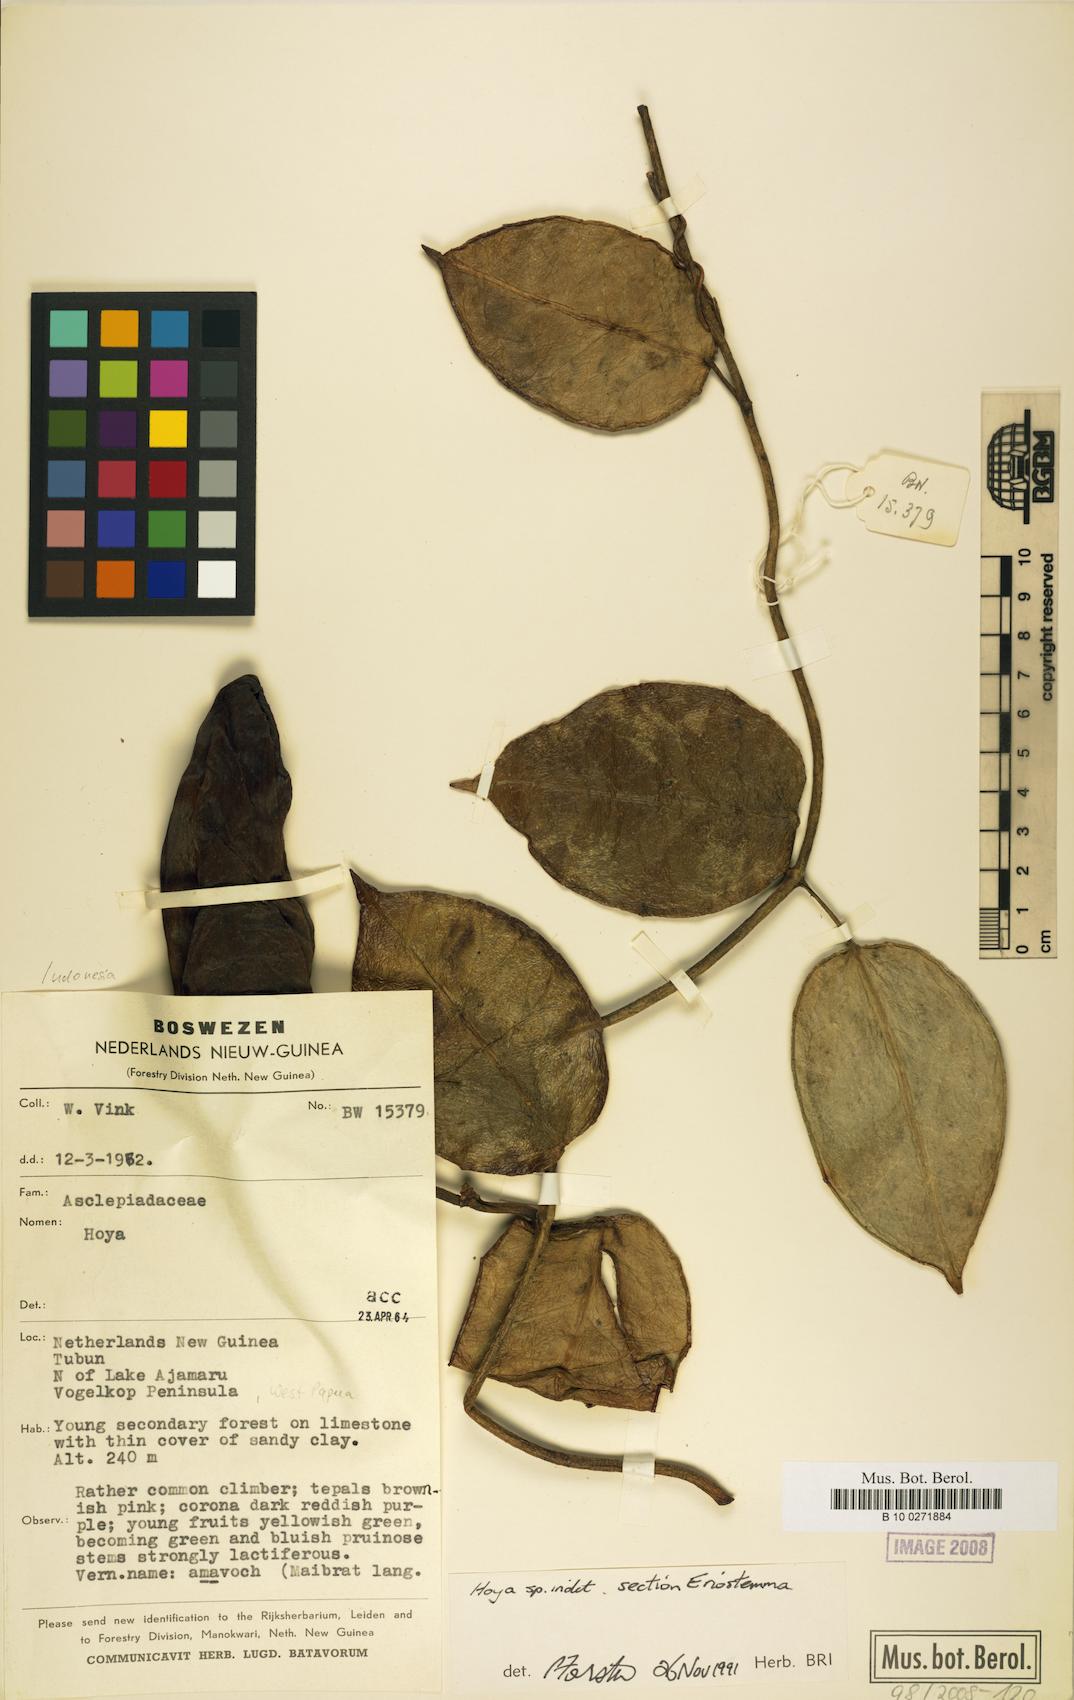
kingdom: Plantae
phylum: Tracheophyta
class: Magnoliopsida
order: Gentianales
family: Apocynaceae
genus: Hoya
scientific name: Hoya
